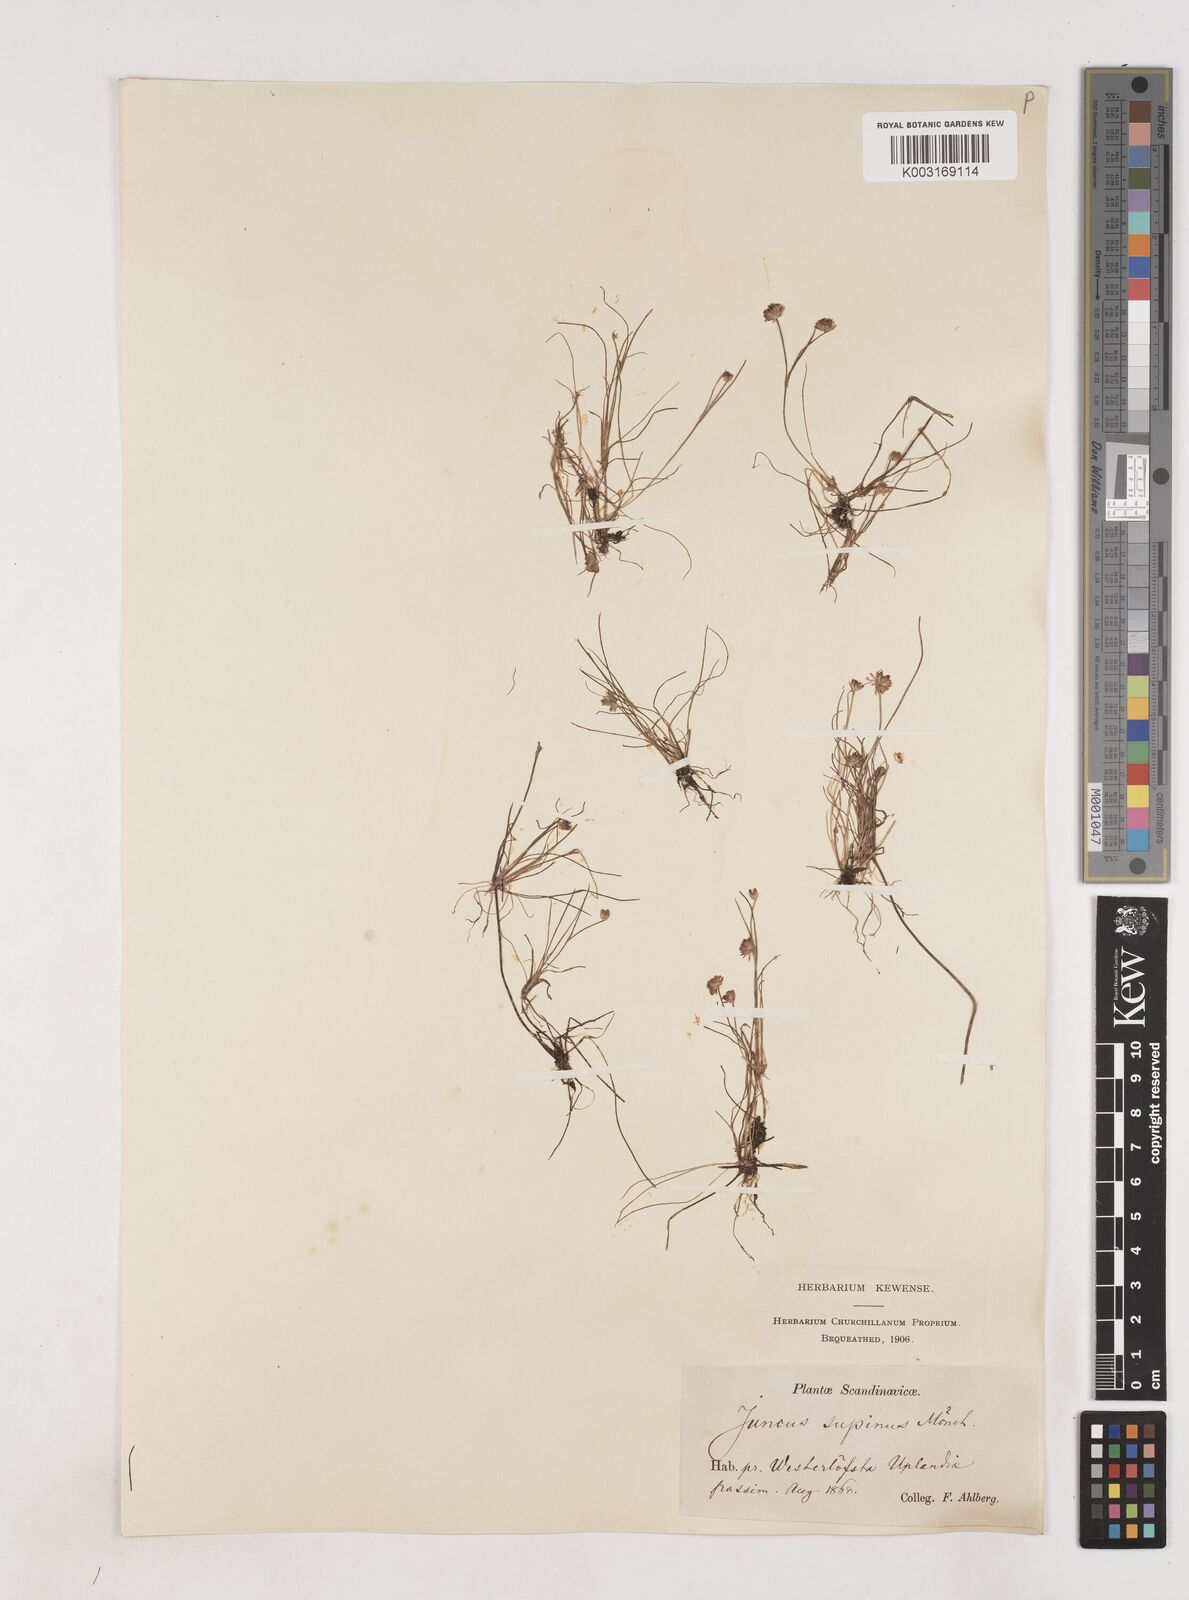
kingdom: Plantae
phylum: Tracheophyta
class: Liliopsida
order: Poales
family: Juncaceae
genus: Juncus
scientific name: Juncus bulbosus
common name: Bulbous rush
